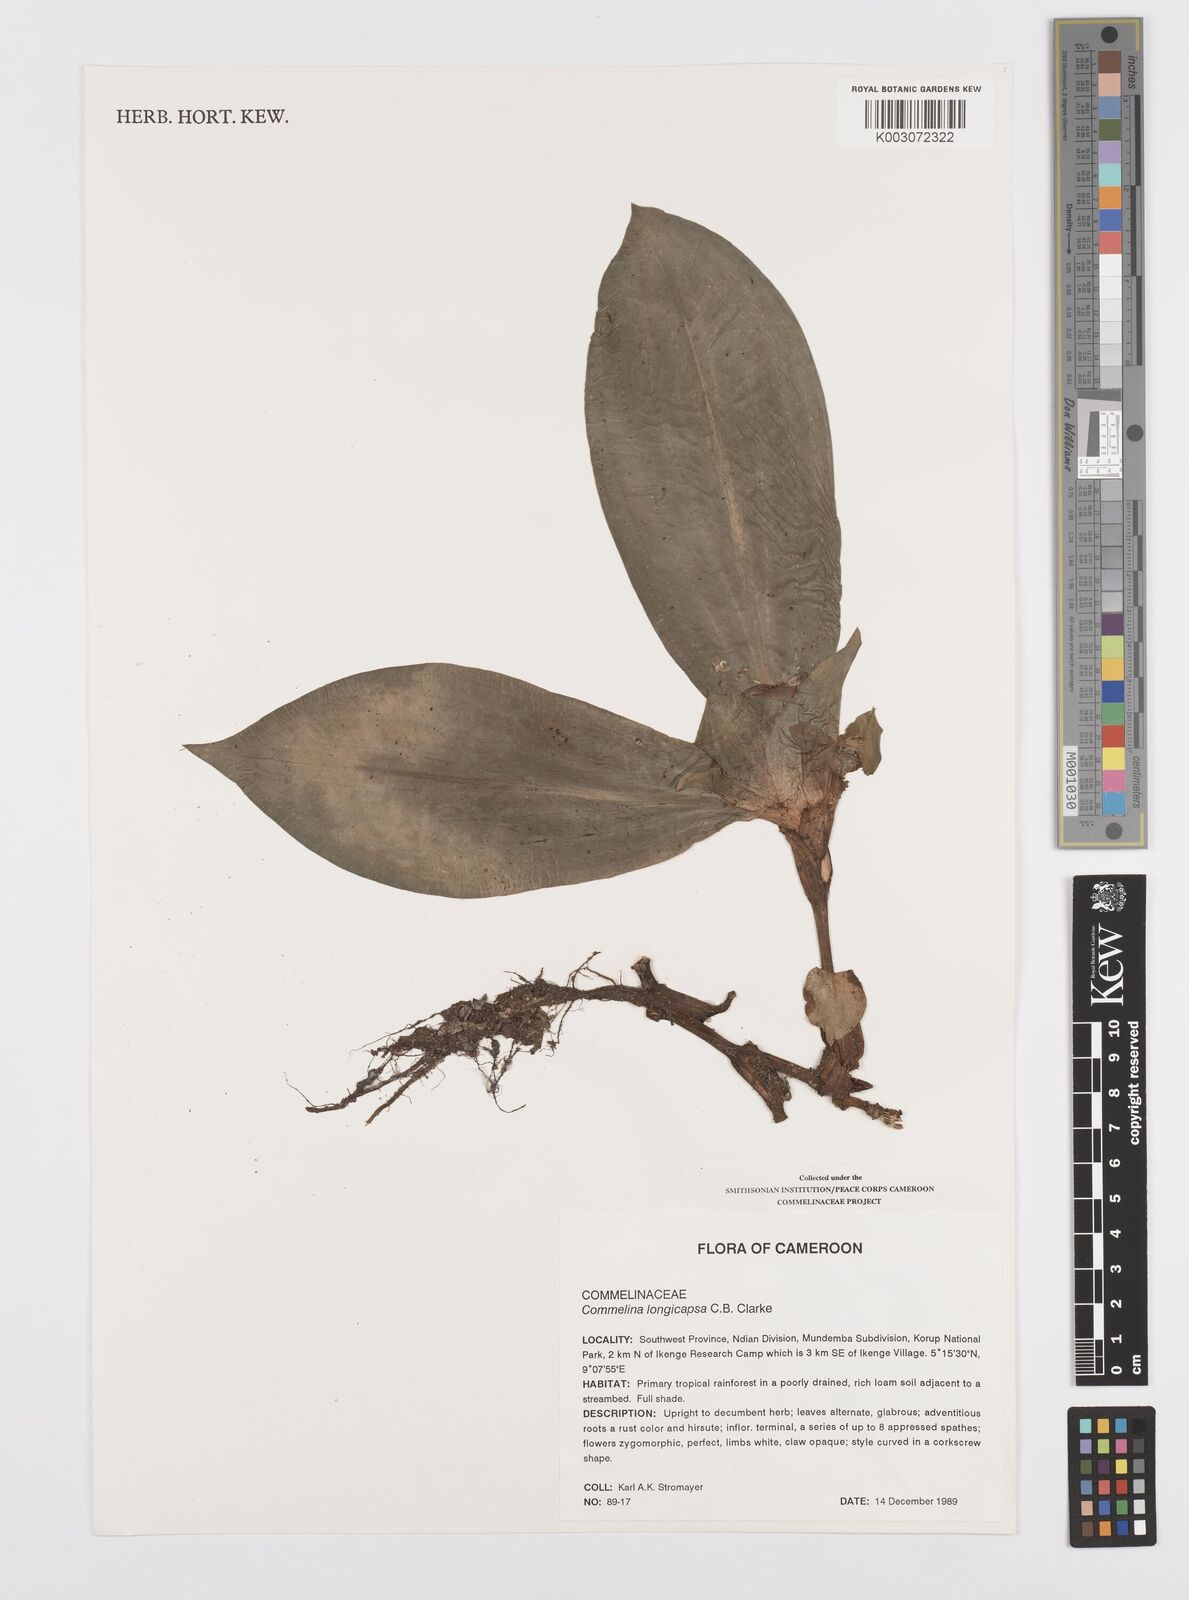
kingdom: Plantae
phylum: Tracheophyta
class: Liliopsida
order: Commelinales
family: Commelinaceae
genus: Commelina
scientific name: Commelina longicapsa
